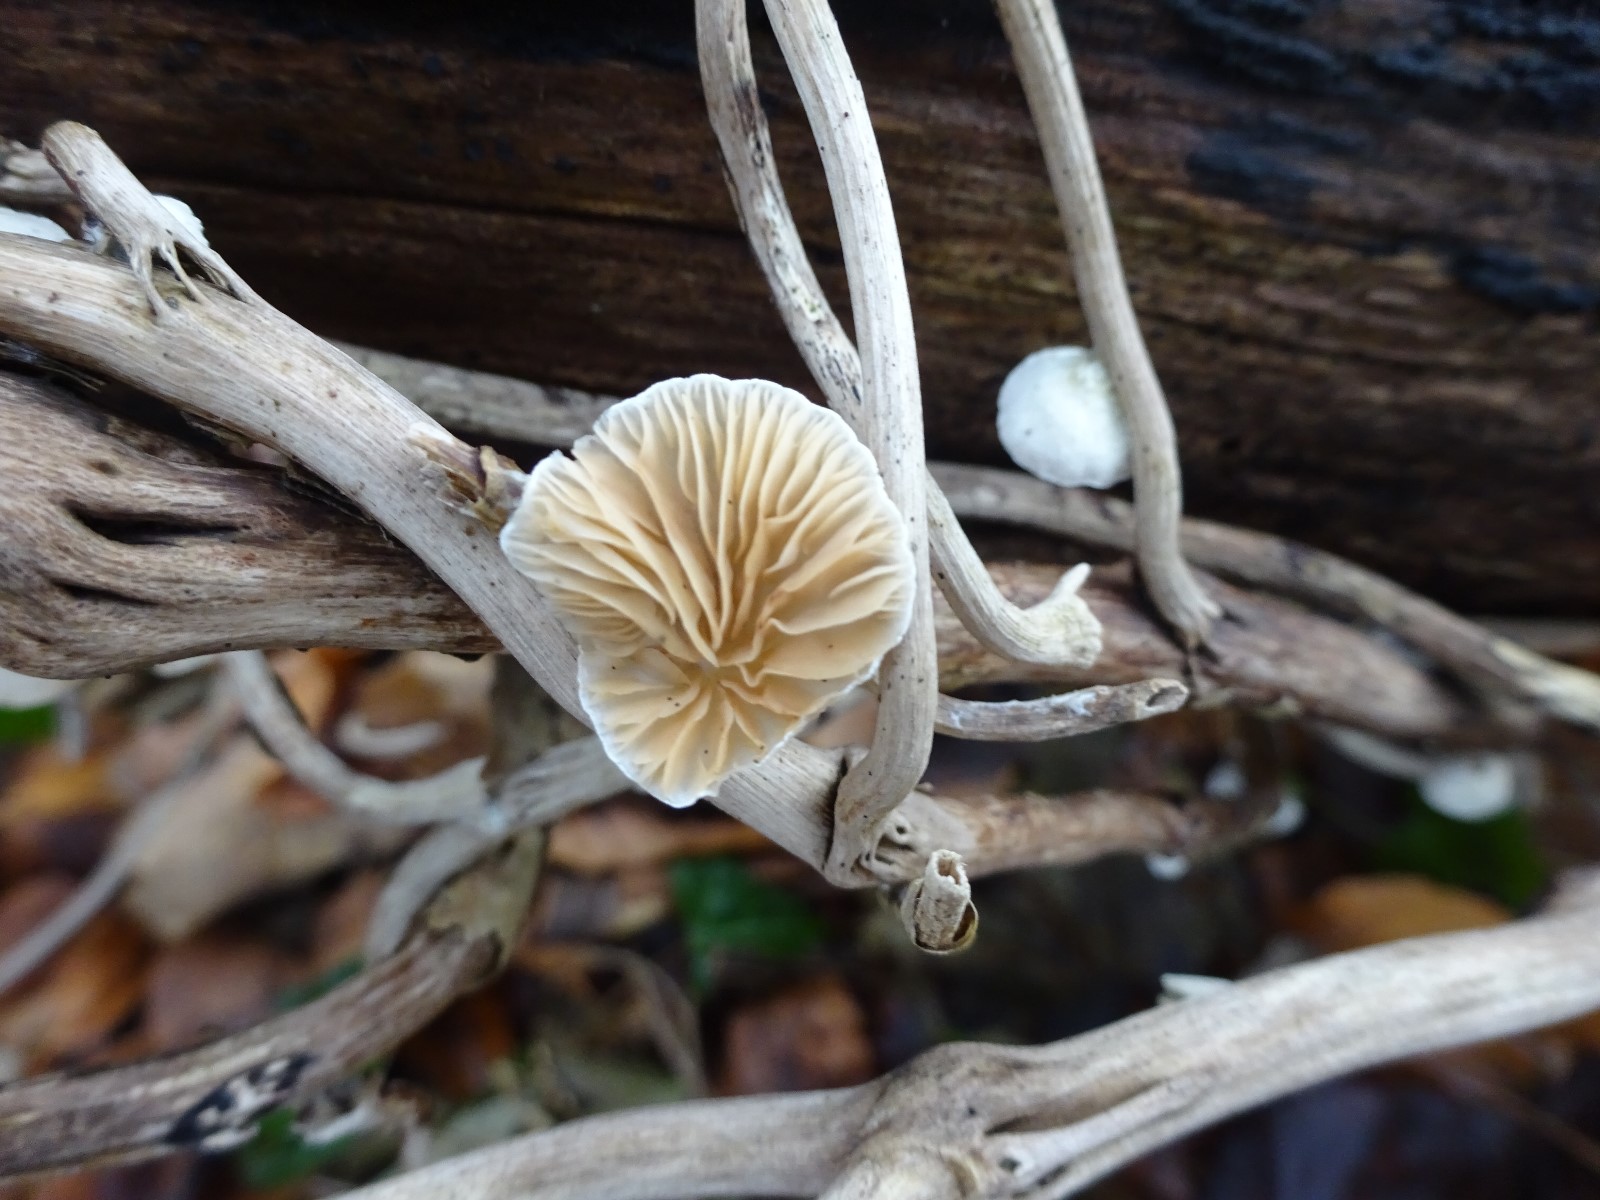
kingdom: Fungi
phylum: Basidiomycota
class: Agaricomycetes
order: Agaricales
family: Crepidotaceae
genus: Crepidotus
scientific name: Crepidotus
